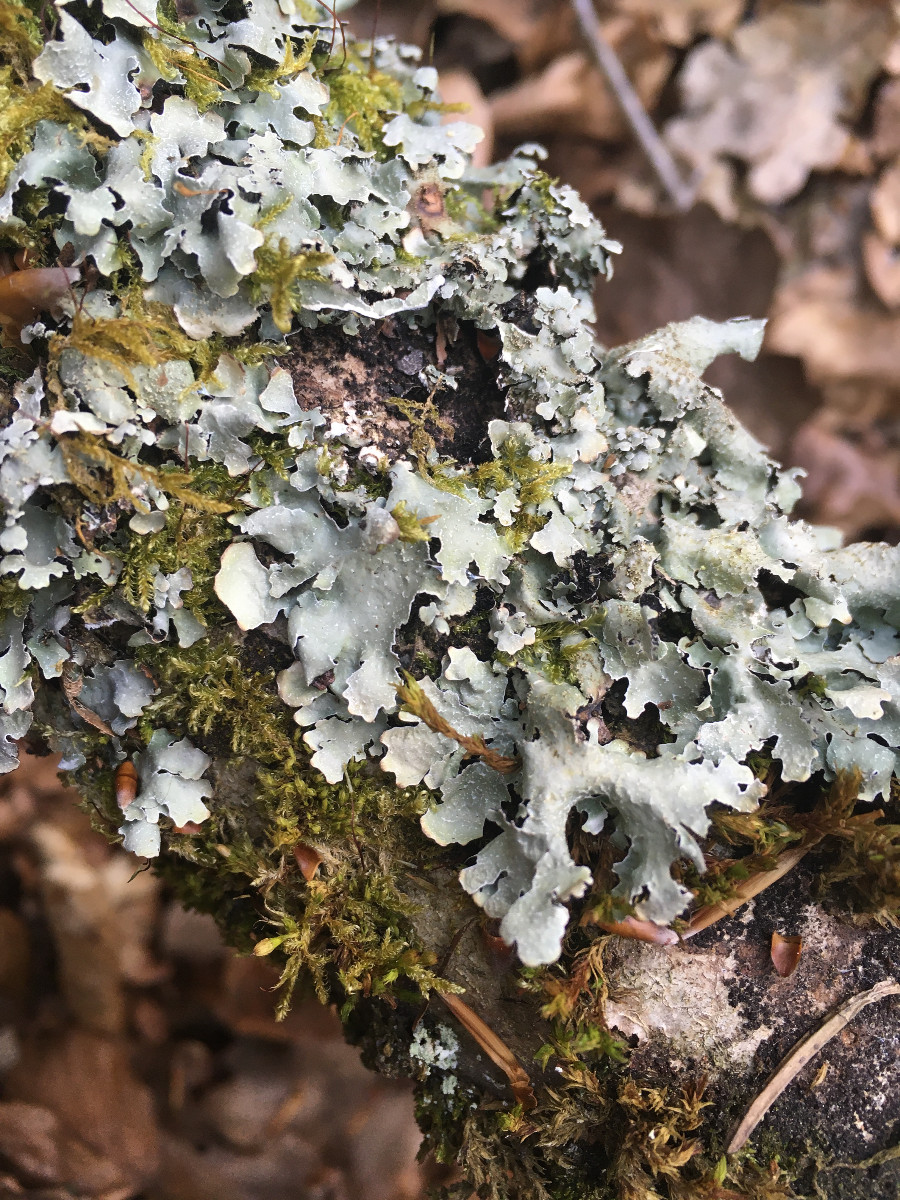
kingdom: Fungi
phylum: Ascomycota
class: Lecanoromycetes
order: Lecanorales
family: Parmeliaceae
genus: Parmelia
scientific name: Parmelia saxatilis
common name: farve-skållav
